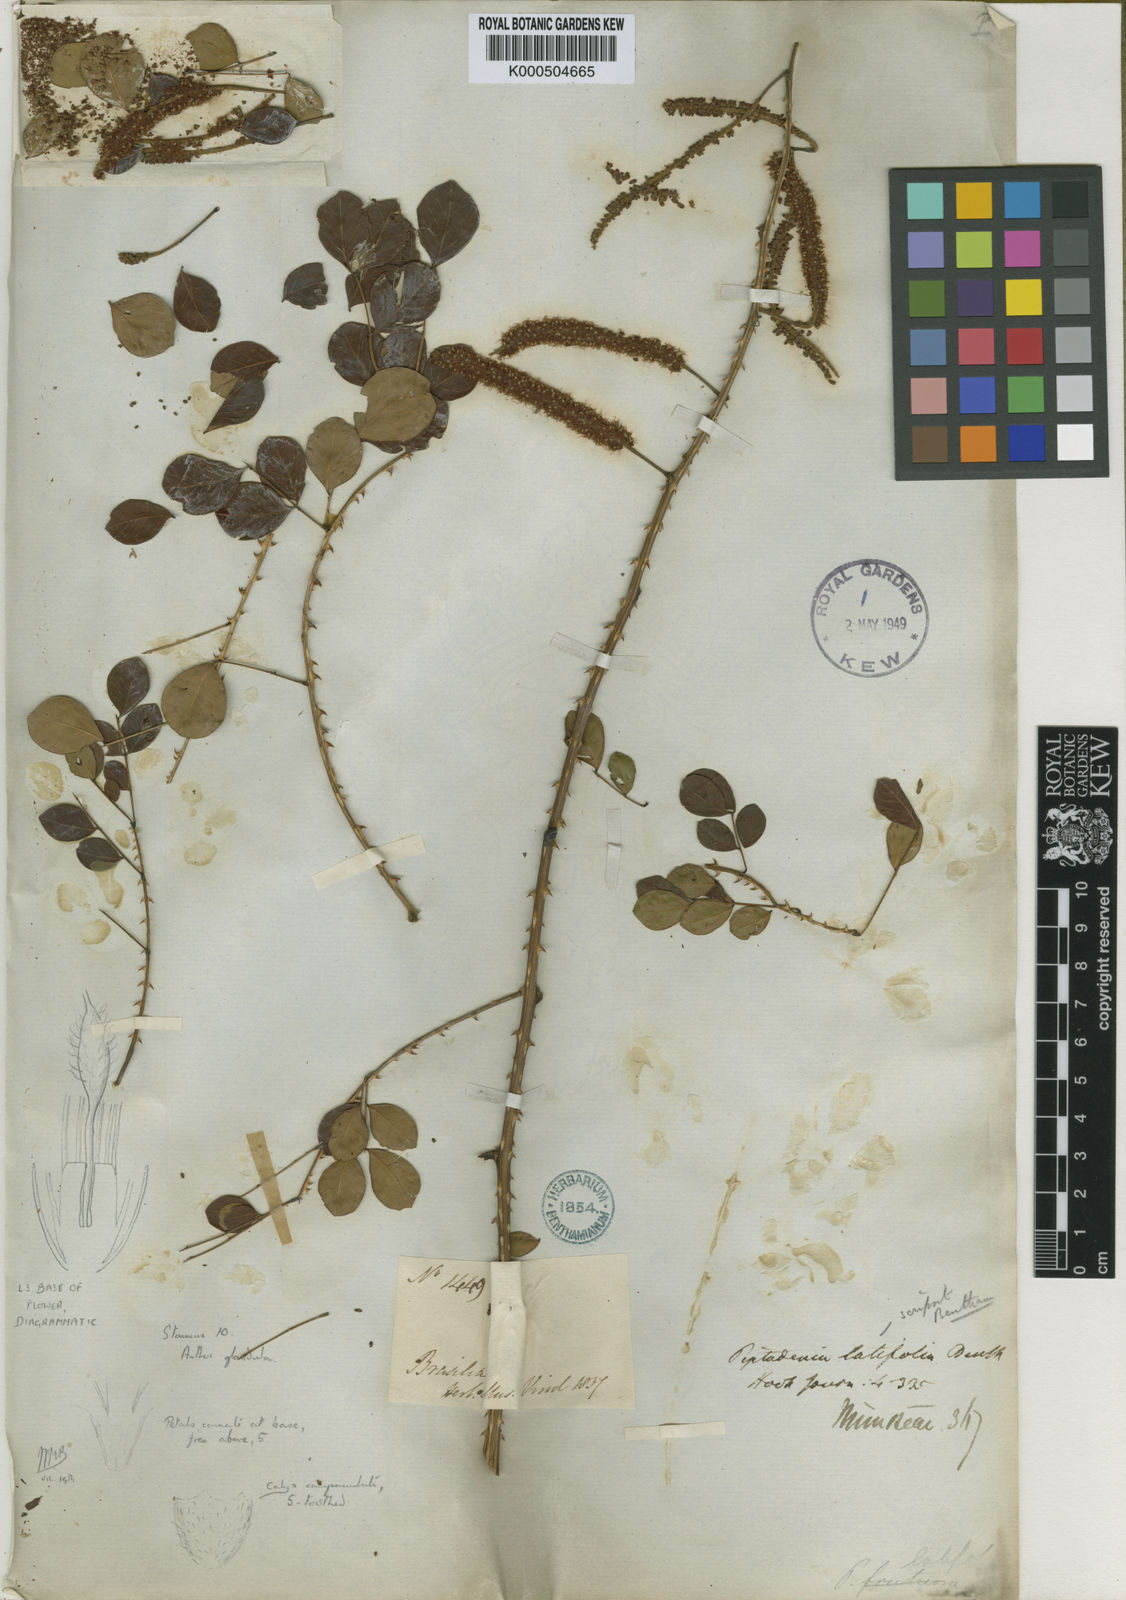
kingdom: Plantae
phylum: Tracheophyta
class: Magnoliopsida
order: Fabales
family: Fabaceae
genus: Piptadenia
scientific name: Piptadenia adiantoides
